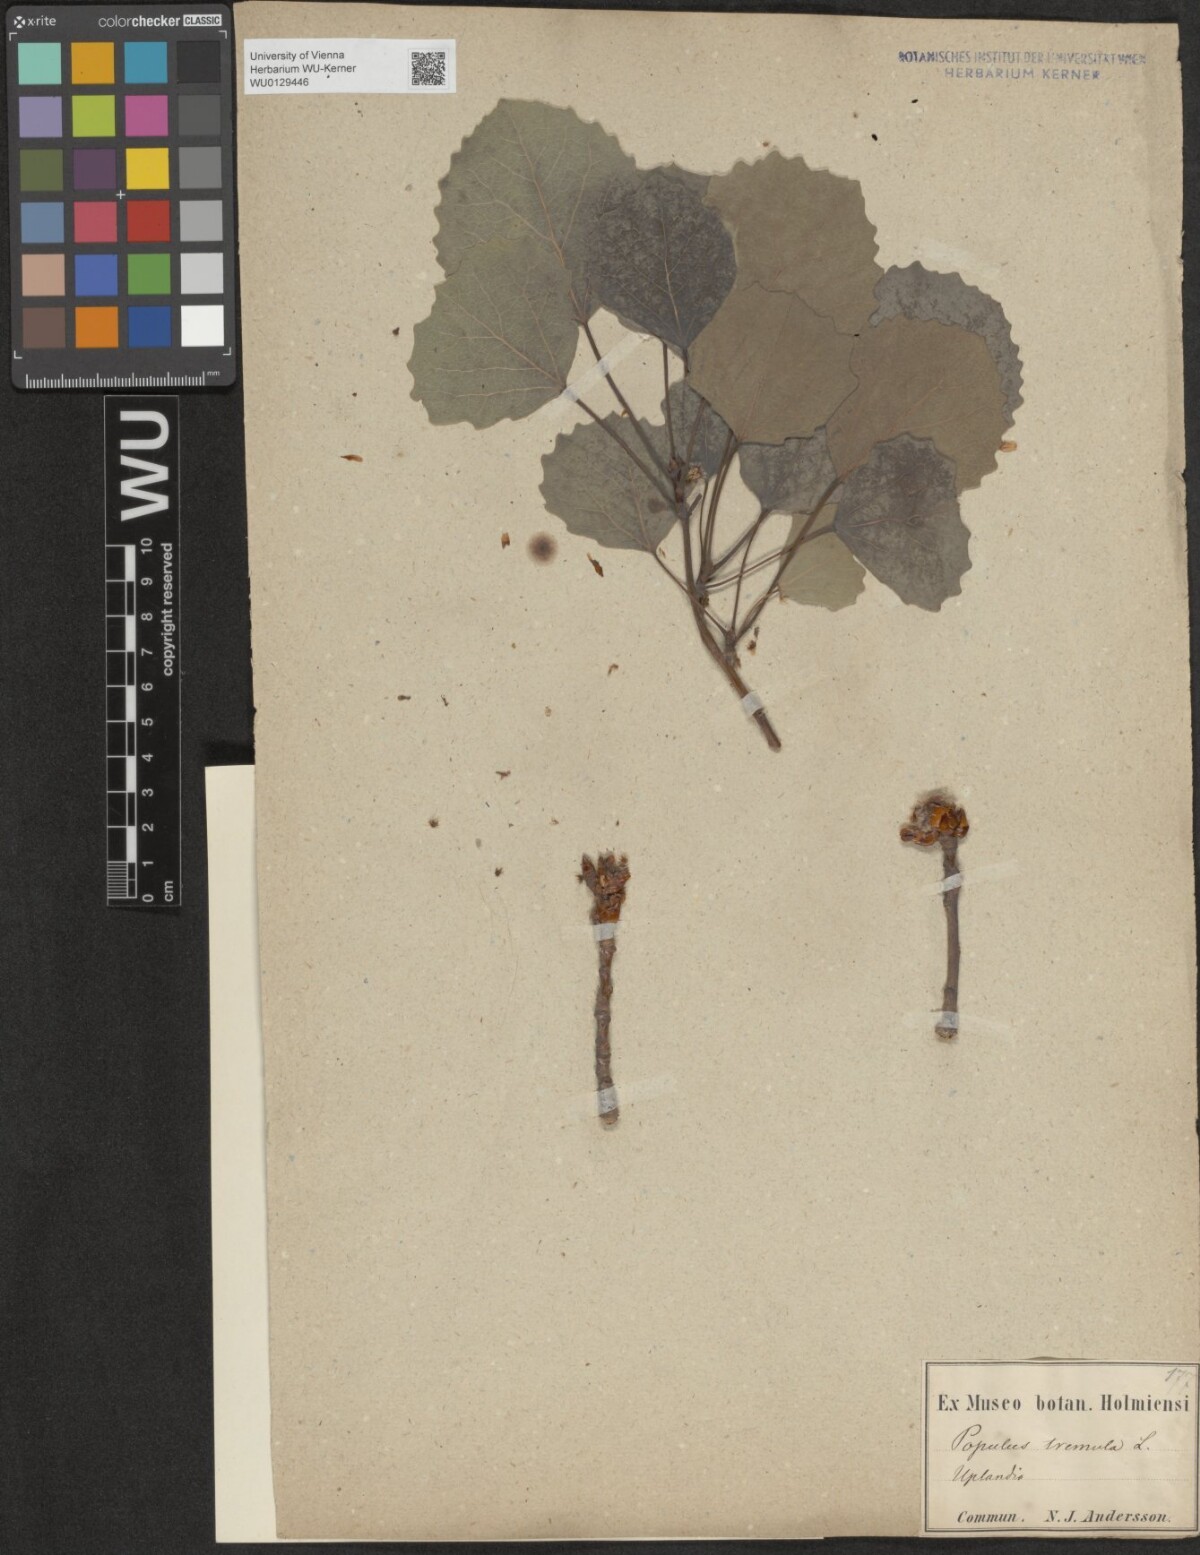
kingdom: Plantae
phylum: Tracheophyta
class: Magnoliopsida
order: Malpighiales
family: Salicaceae
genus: Populus
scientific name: Populus tremula
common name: European aspen
